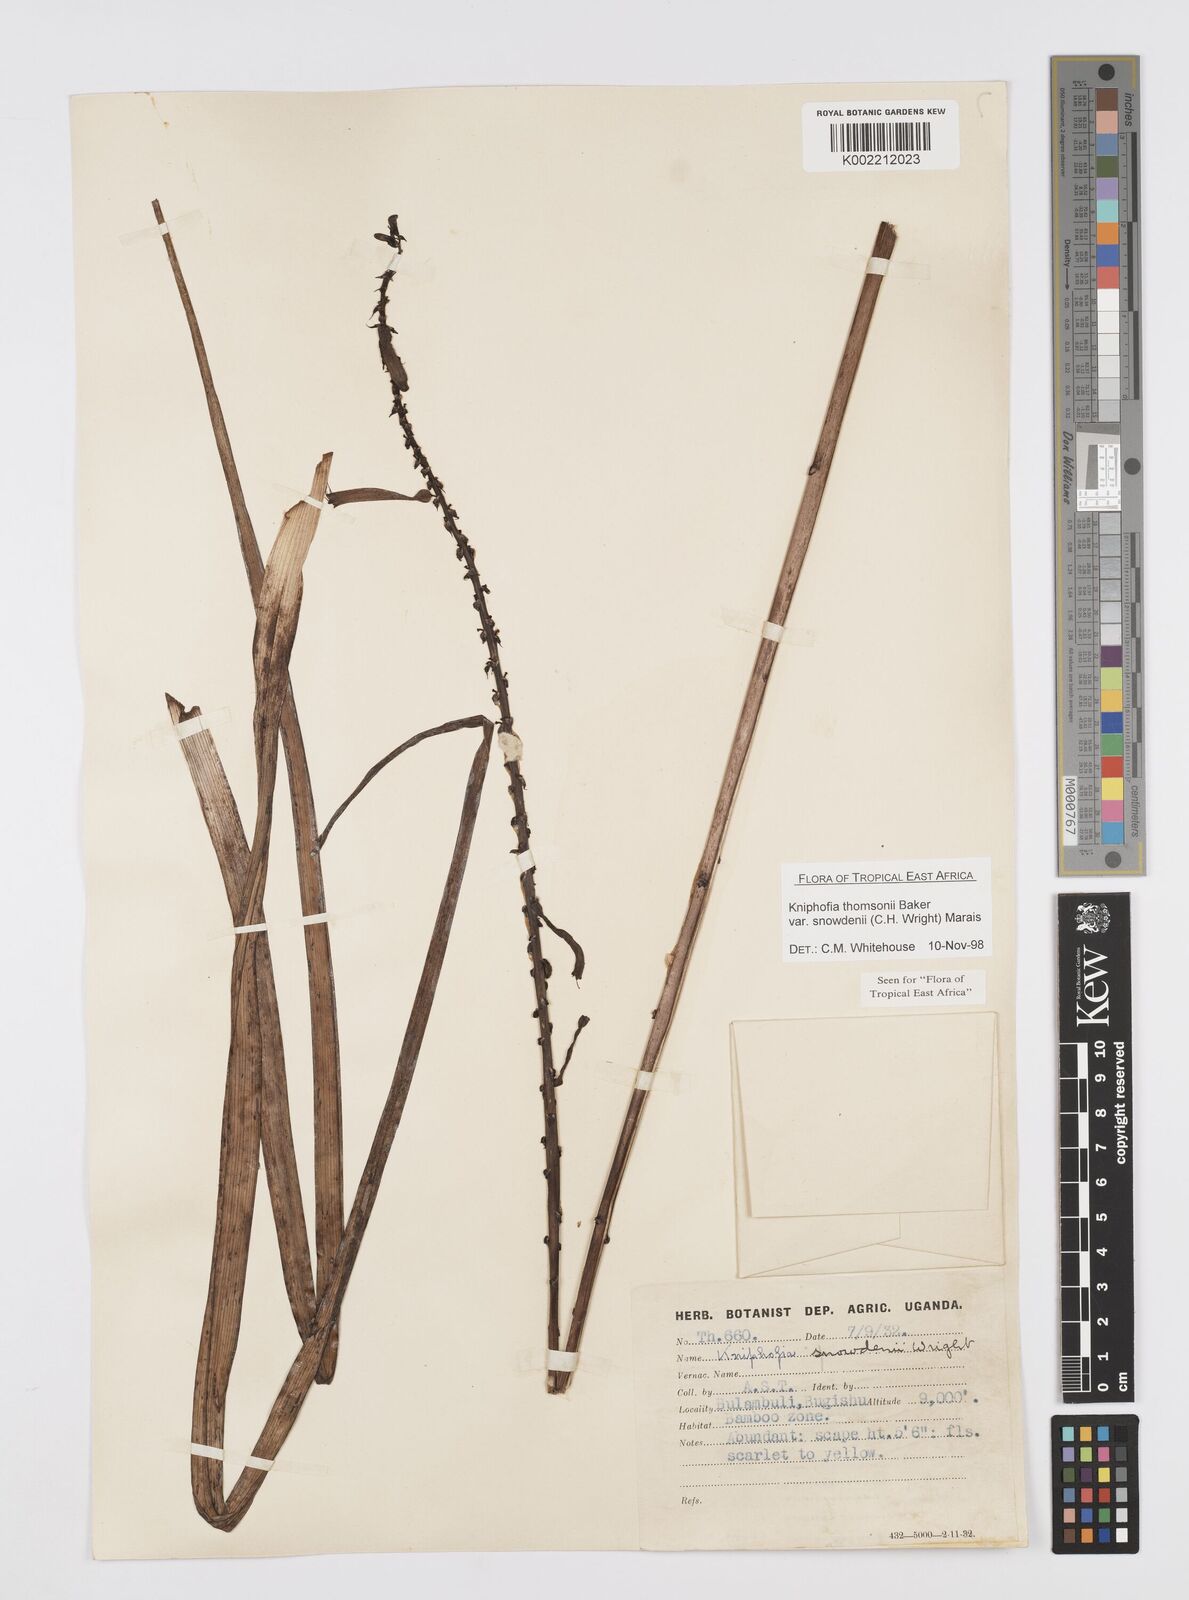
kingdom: Plantae
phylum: Tracheophyta
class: Liliopsida
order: Asparagales
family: Asphodelaceae
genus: Kniphofia
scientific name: Kniphofia thomsonii
